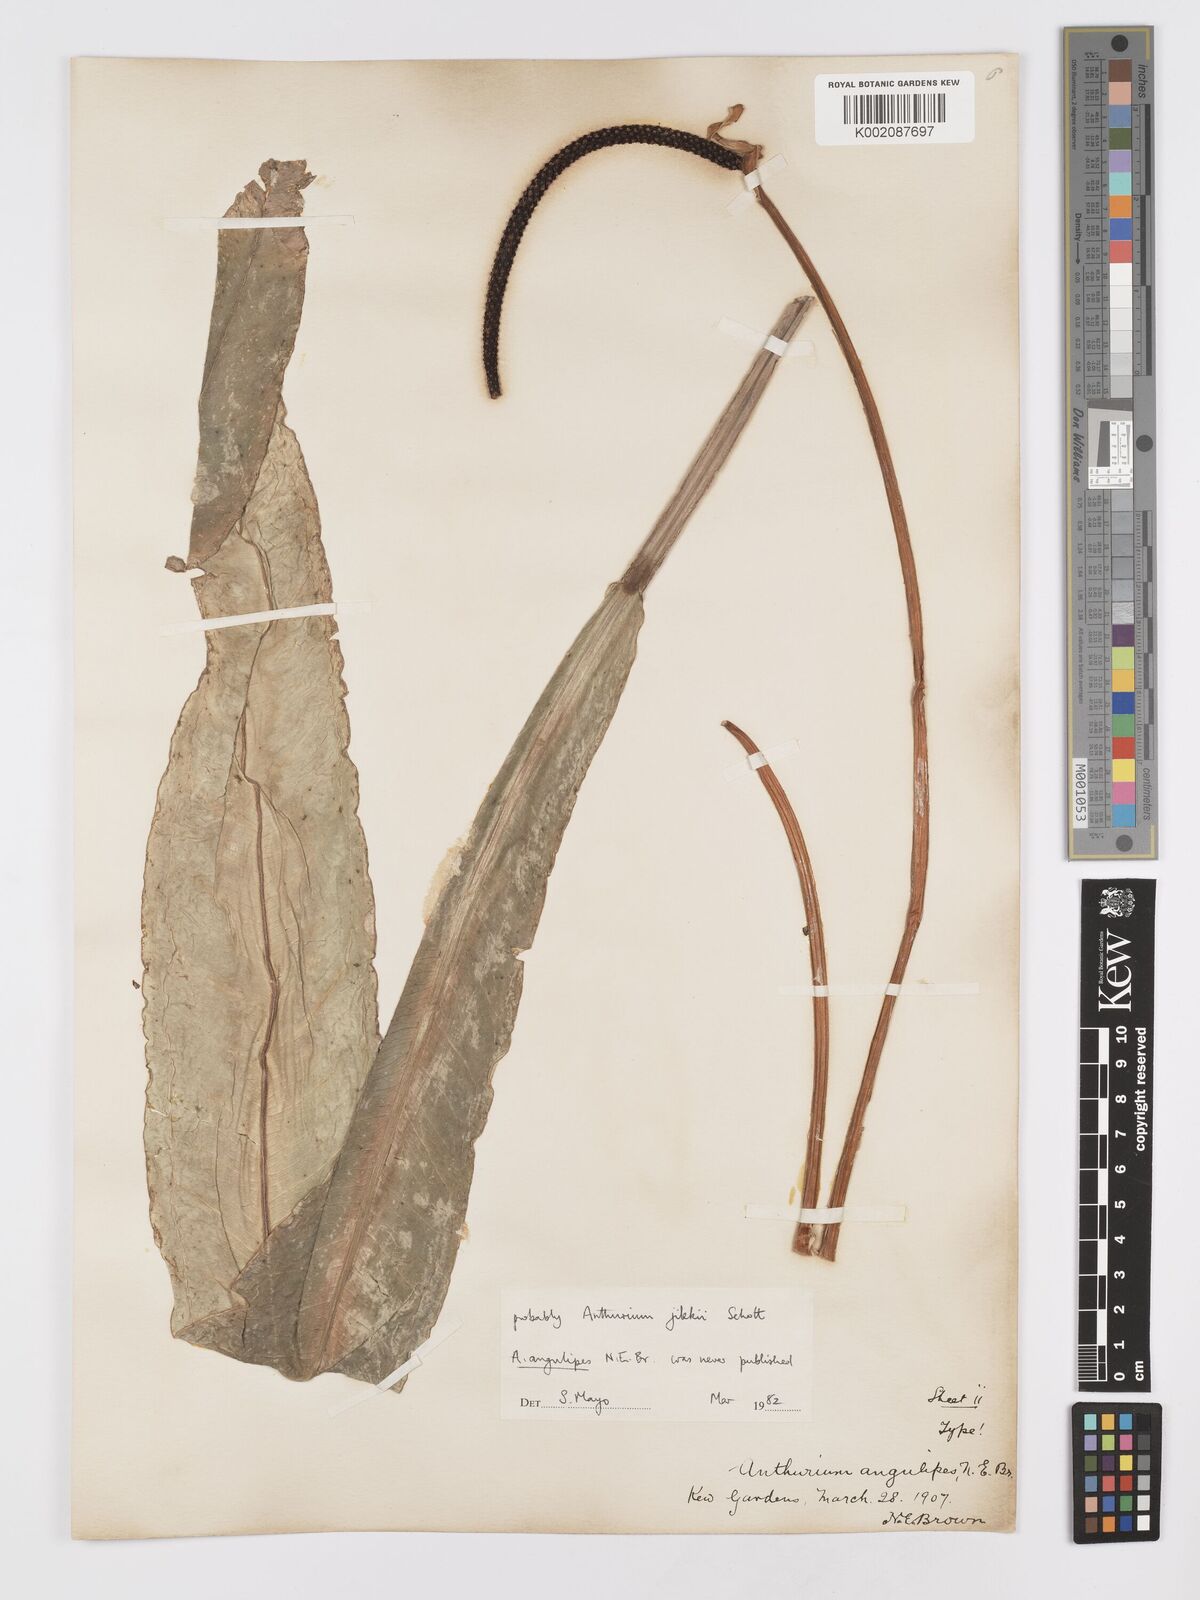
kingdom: Plantae
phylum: Tracheophyta
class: Liliopsida
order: Alismatales
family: Araceae
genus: Anthurium
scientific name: Anthurium jilekii
